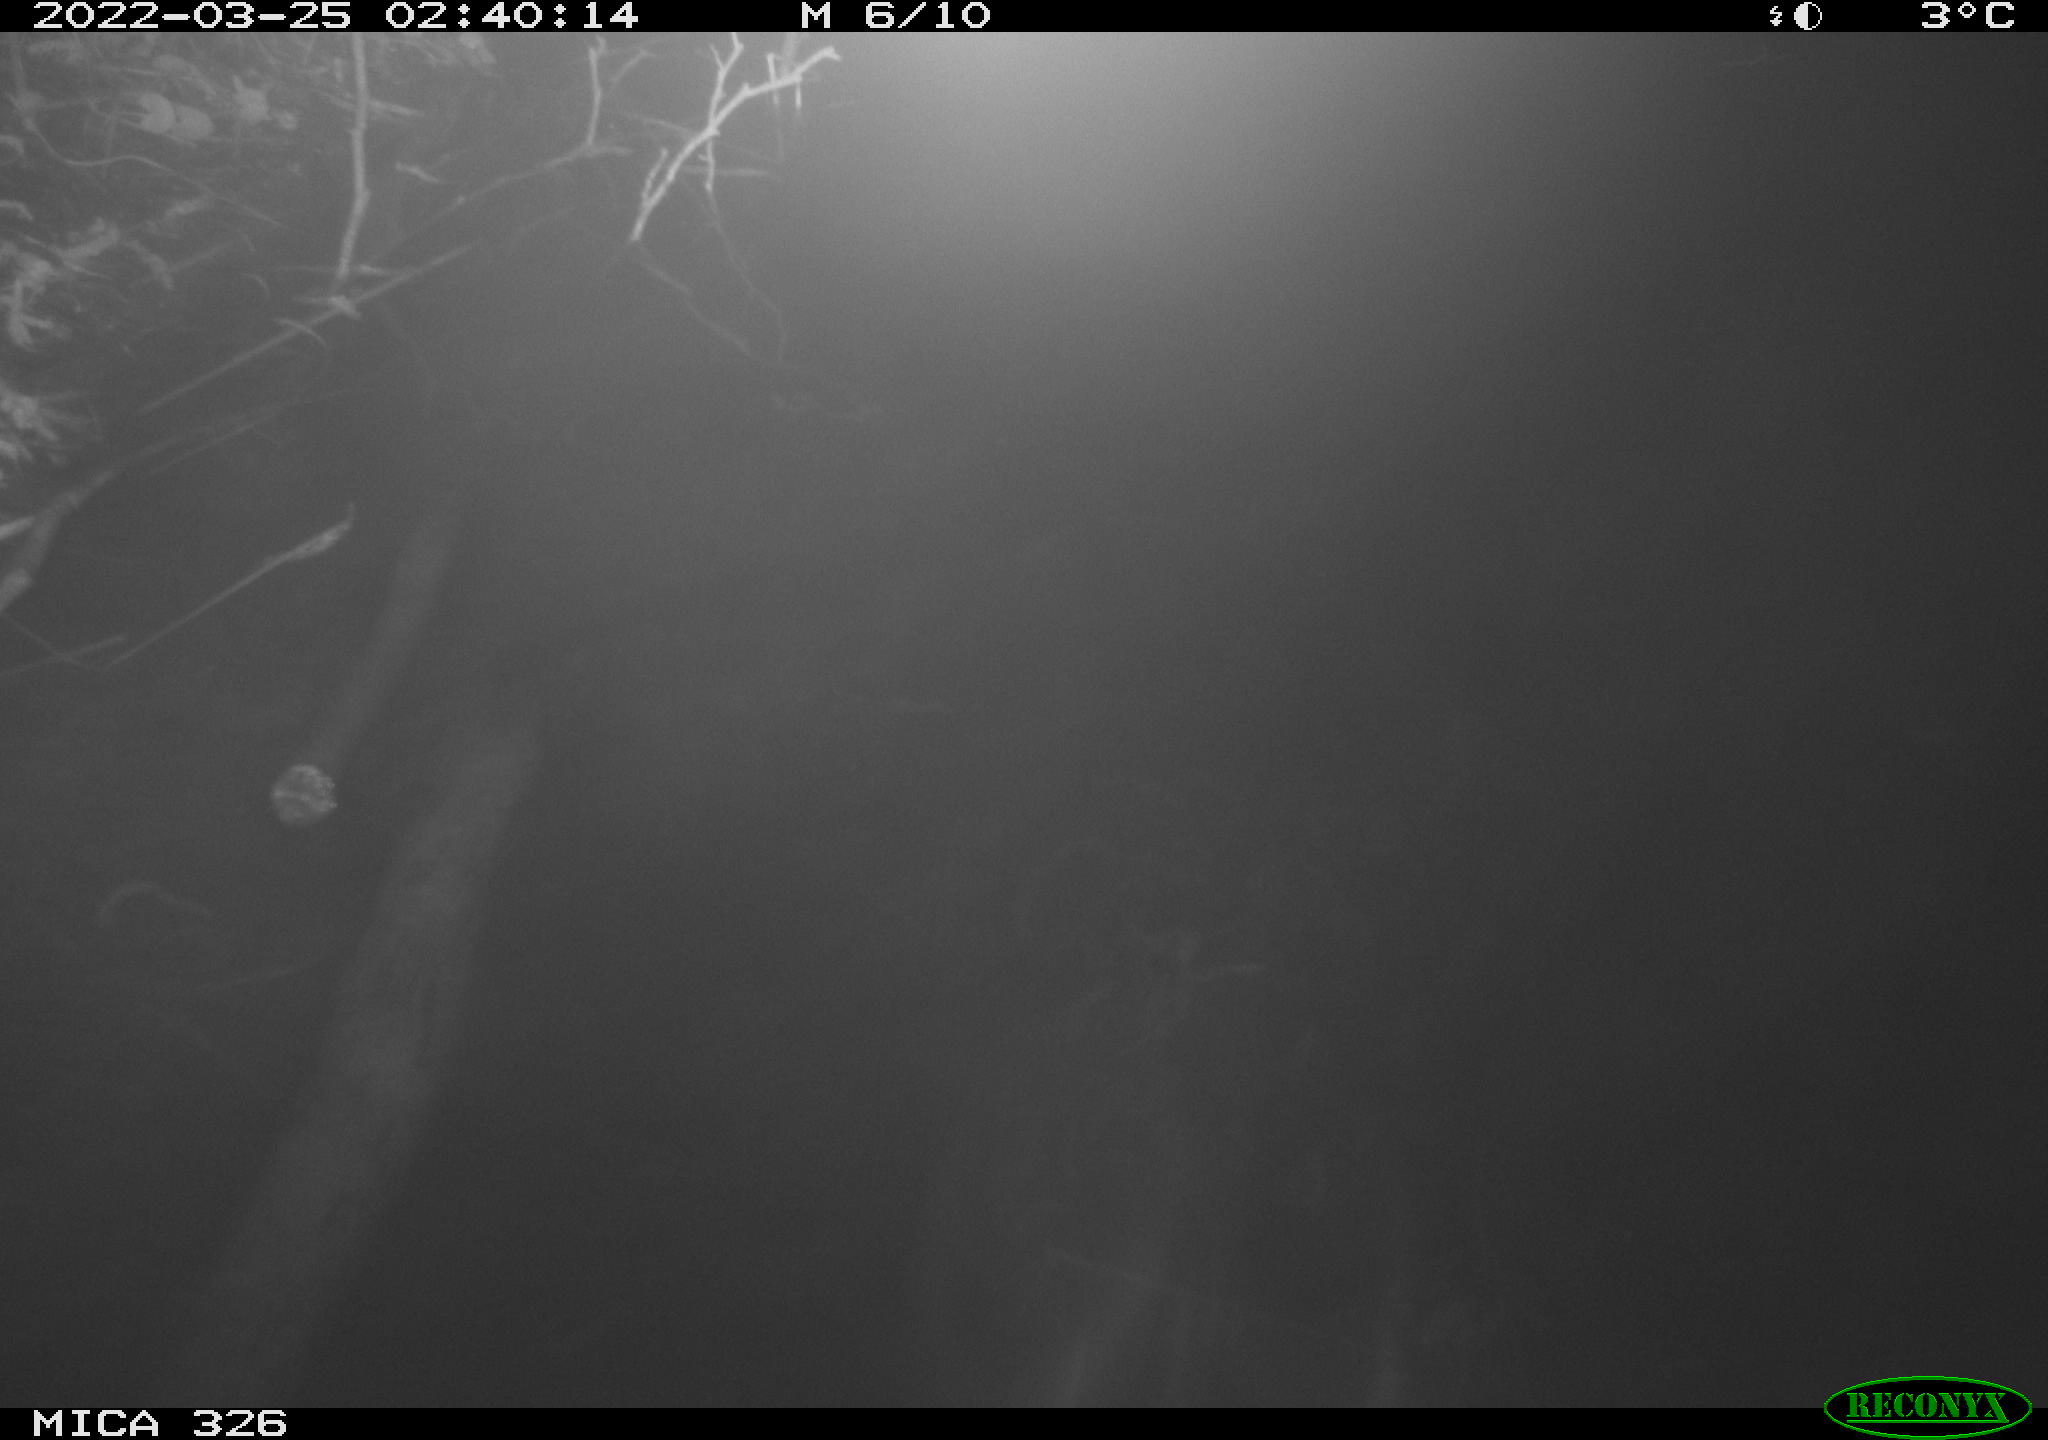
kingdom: Animalia
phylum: Chordata
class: Mammalia
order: Rodentia
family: Muridae
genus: Rattus
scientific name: Rattus norvegicus
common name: Brown rat
